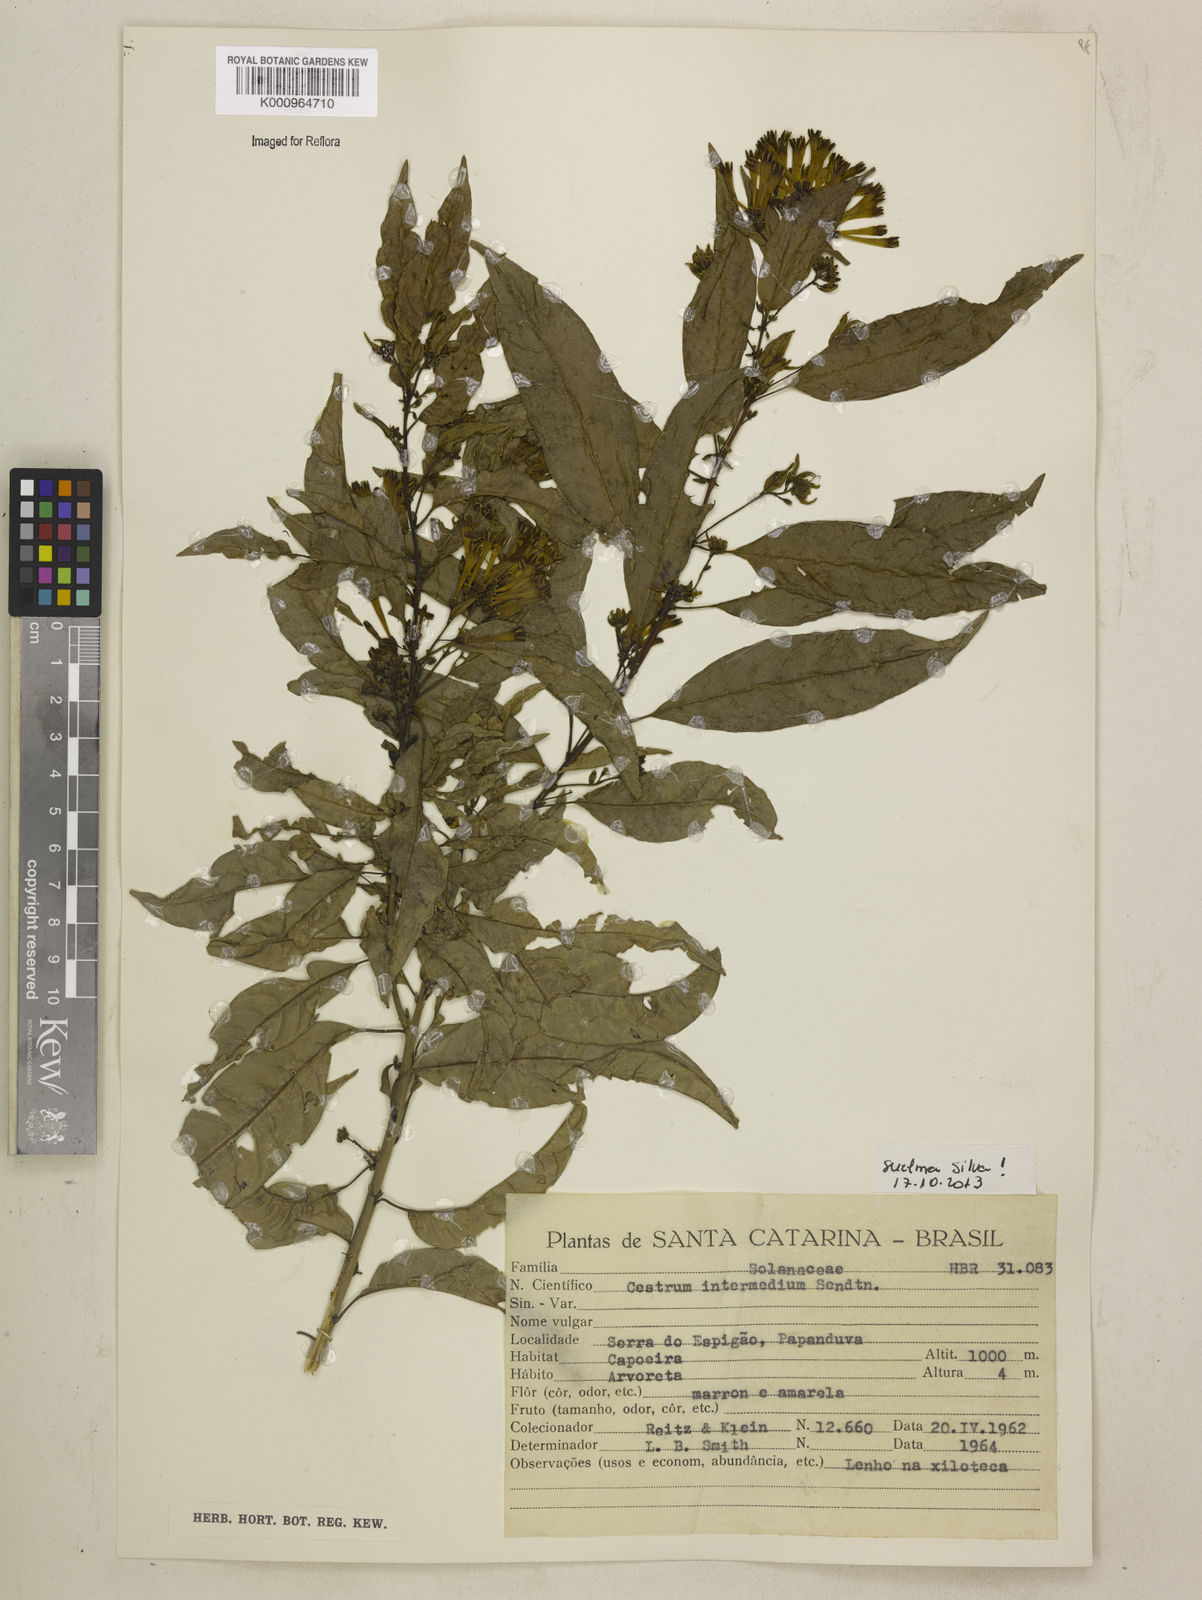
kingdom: Plantae
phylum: Tracheophyta
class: Magnoliopsida
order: Solanales
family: Solanaceae
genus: Cestrum
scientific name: Cestrum intermedium
